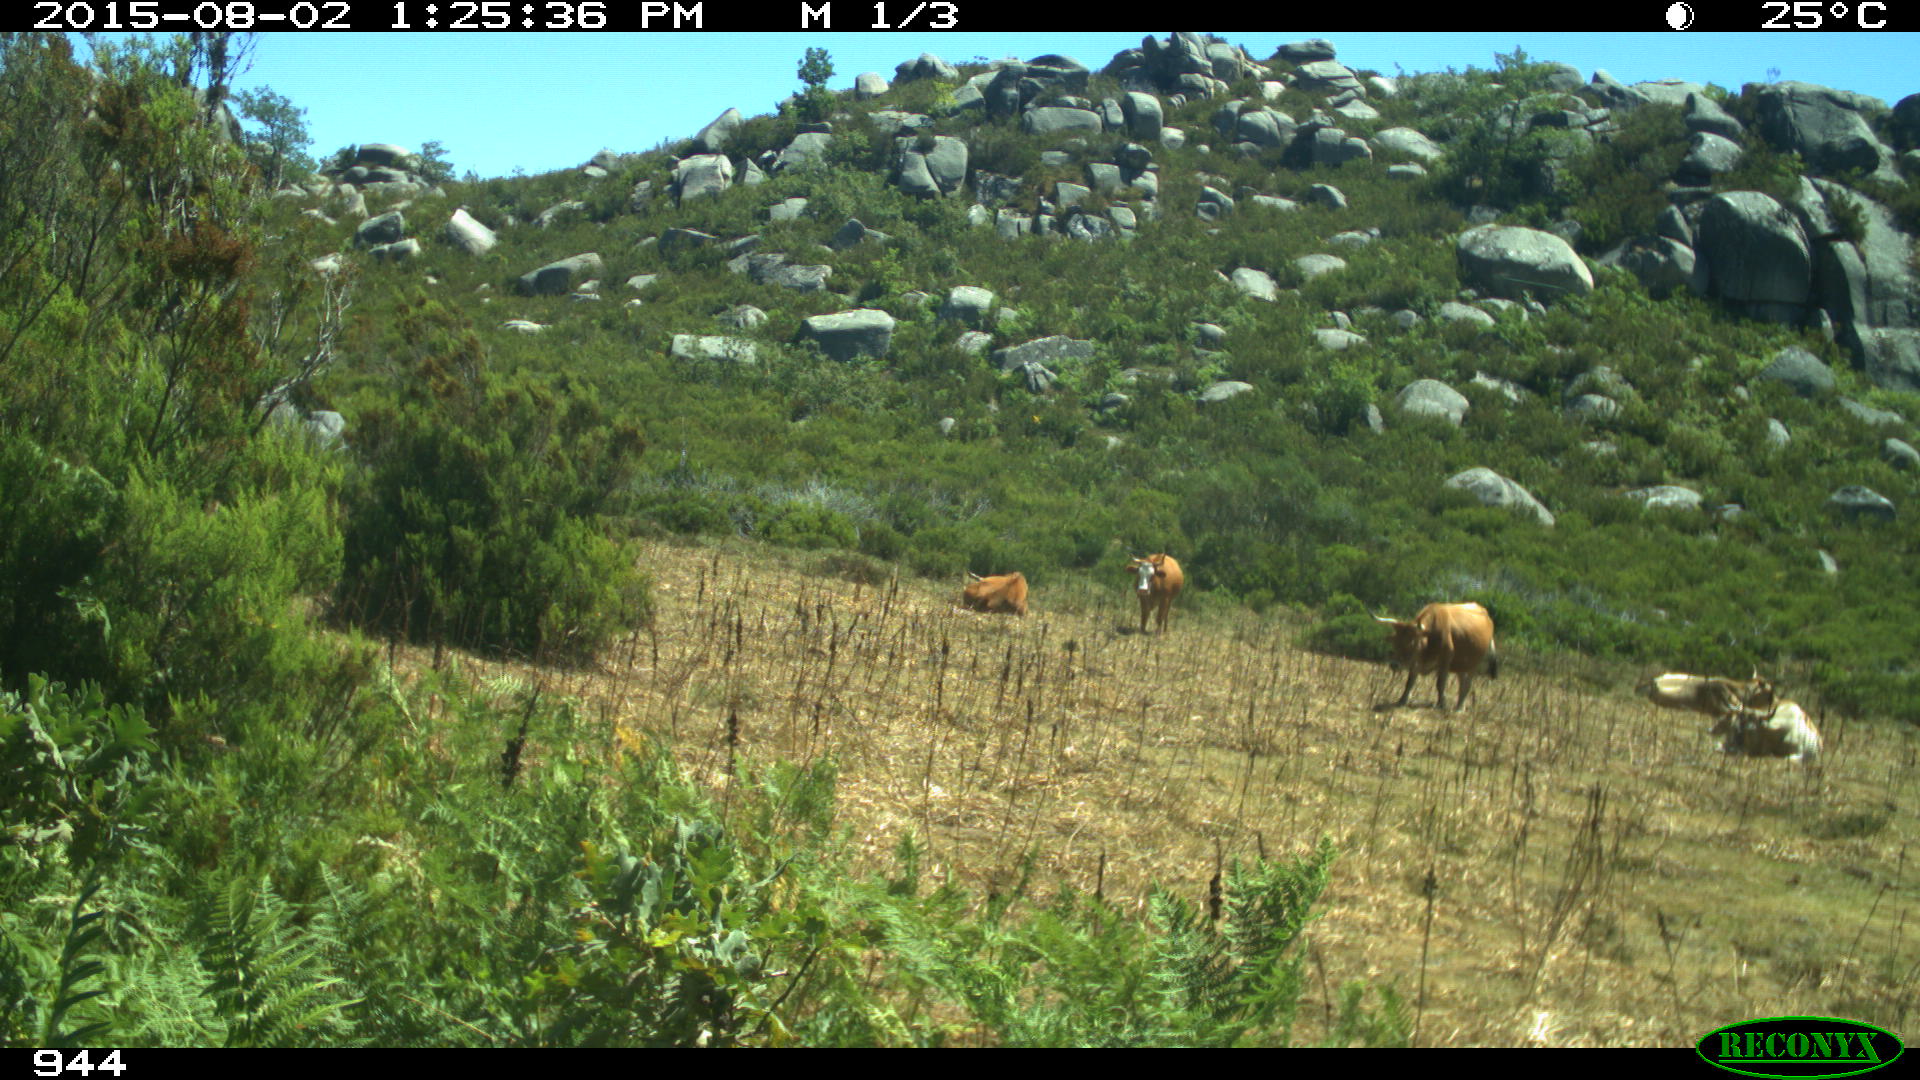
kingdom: Animalia
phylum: Chordata
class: Mammalia
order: Artiodactyla
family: Bovidae
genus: Bos
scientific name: Bos taurus
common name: Domesticated cattle
